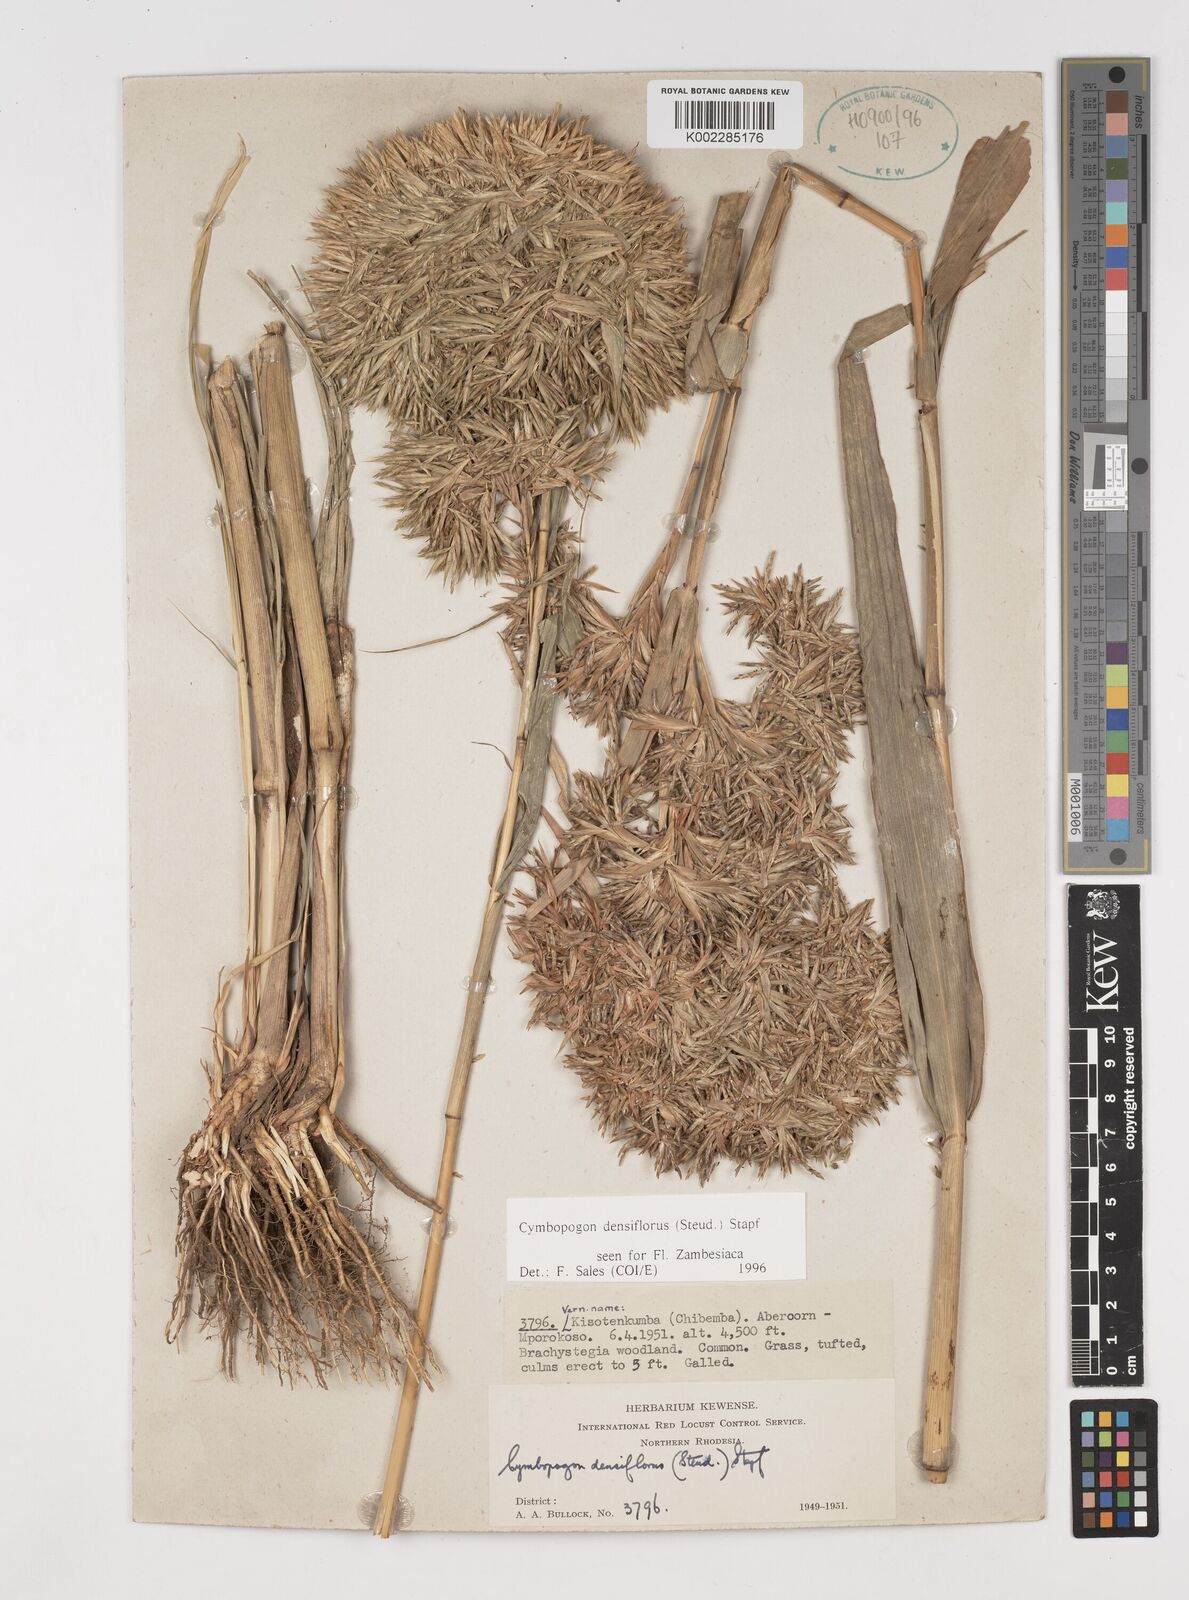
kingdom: Plantae
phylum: Tracheophyta
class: Liliopsida
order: Poales
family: Poaceae
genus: Cymbopogon
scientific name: Cymbopogon densiflorus
